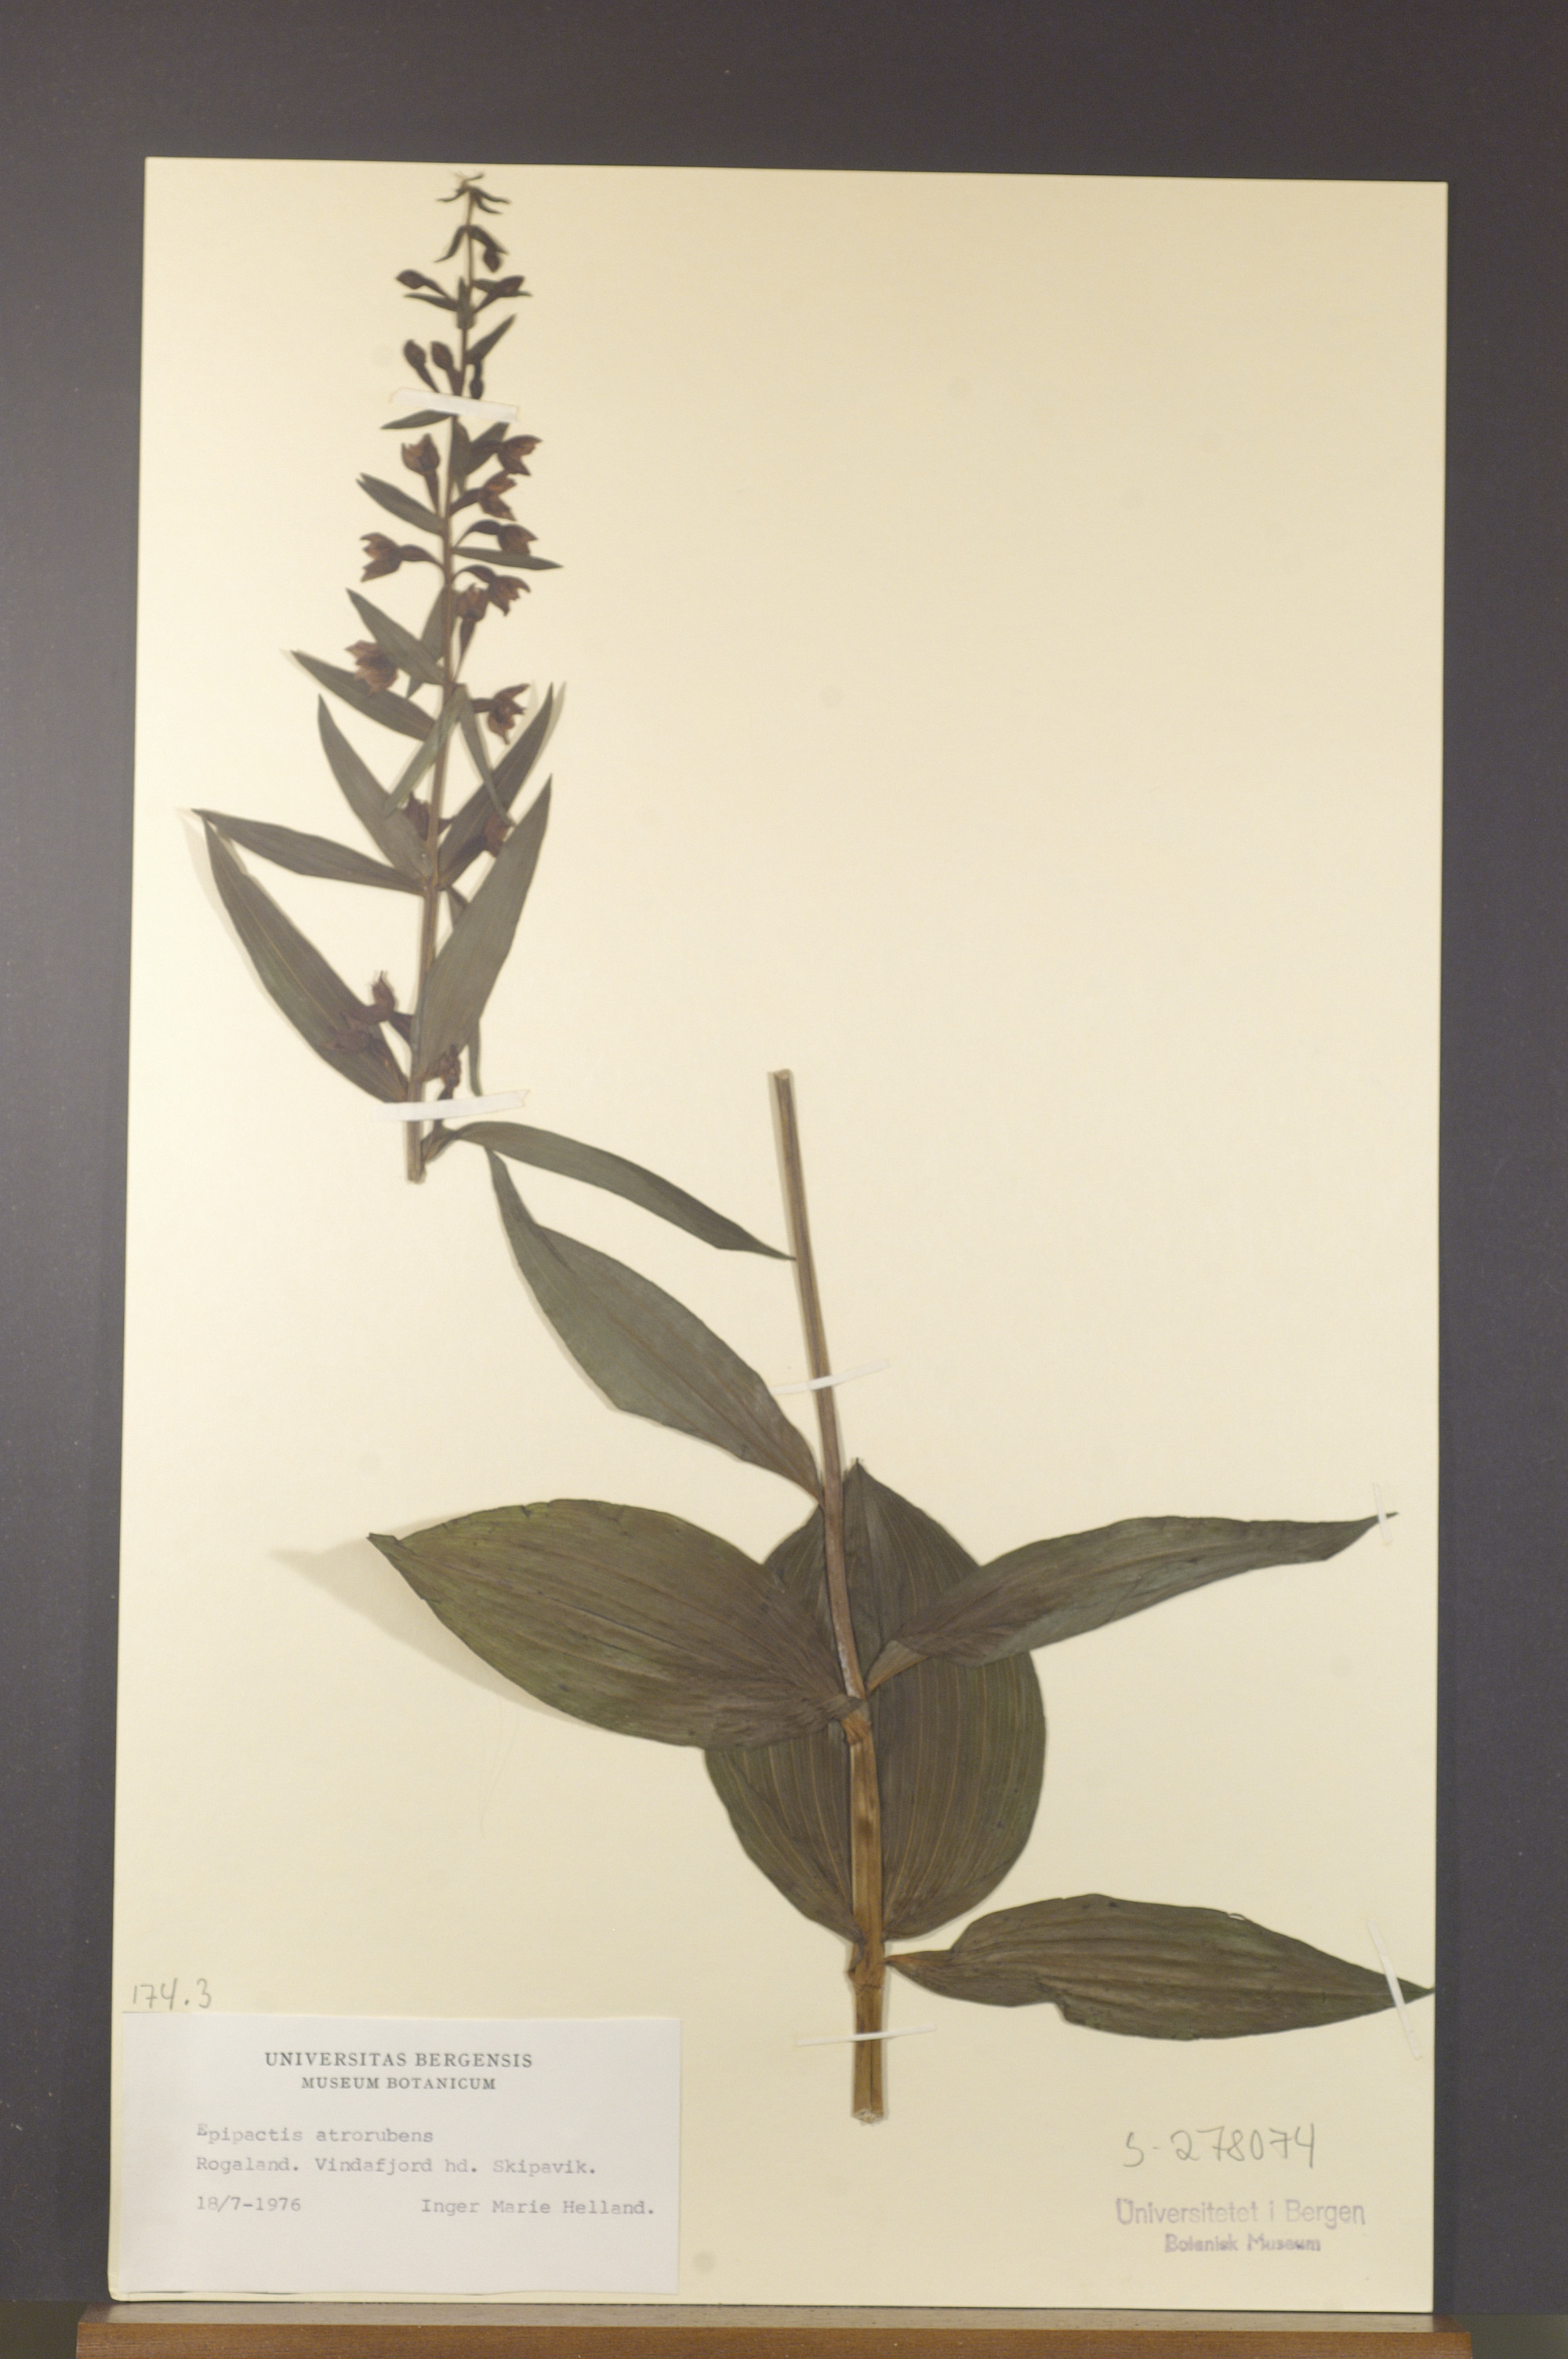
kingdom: Plantae
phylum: Tracheophyta
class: Liliopsida
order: Asparagales
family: Orchidaceae
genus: Epipactis
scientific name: Epipactis helleborine
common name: Broad-leaved helleborine
